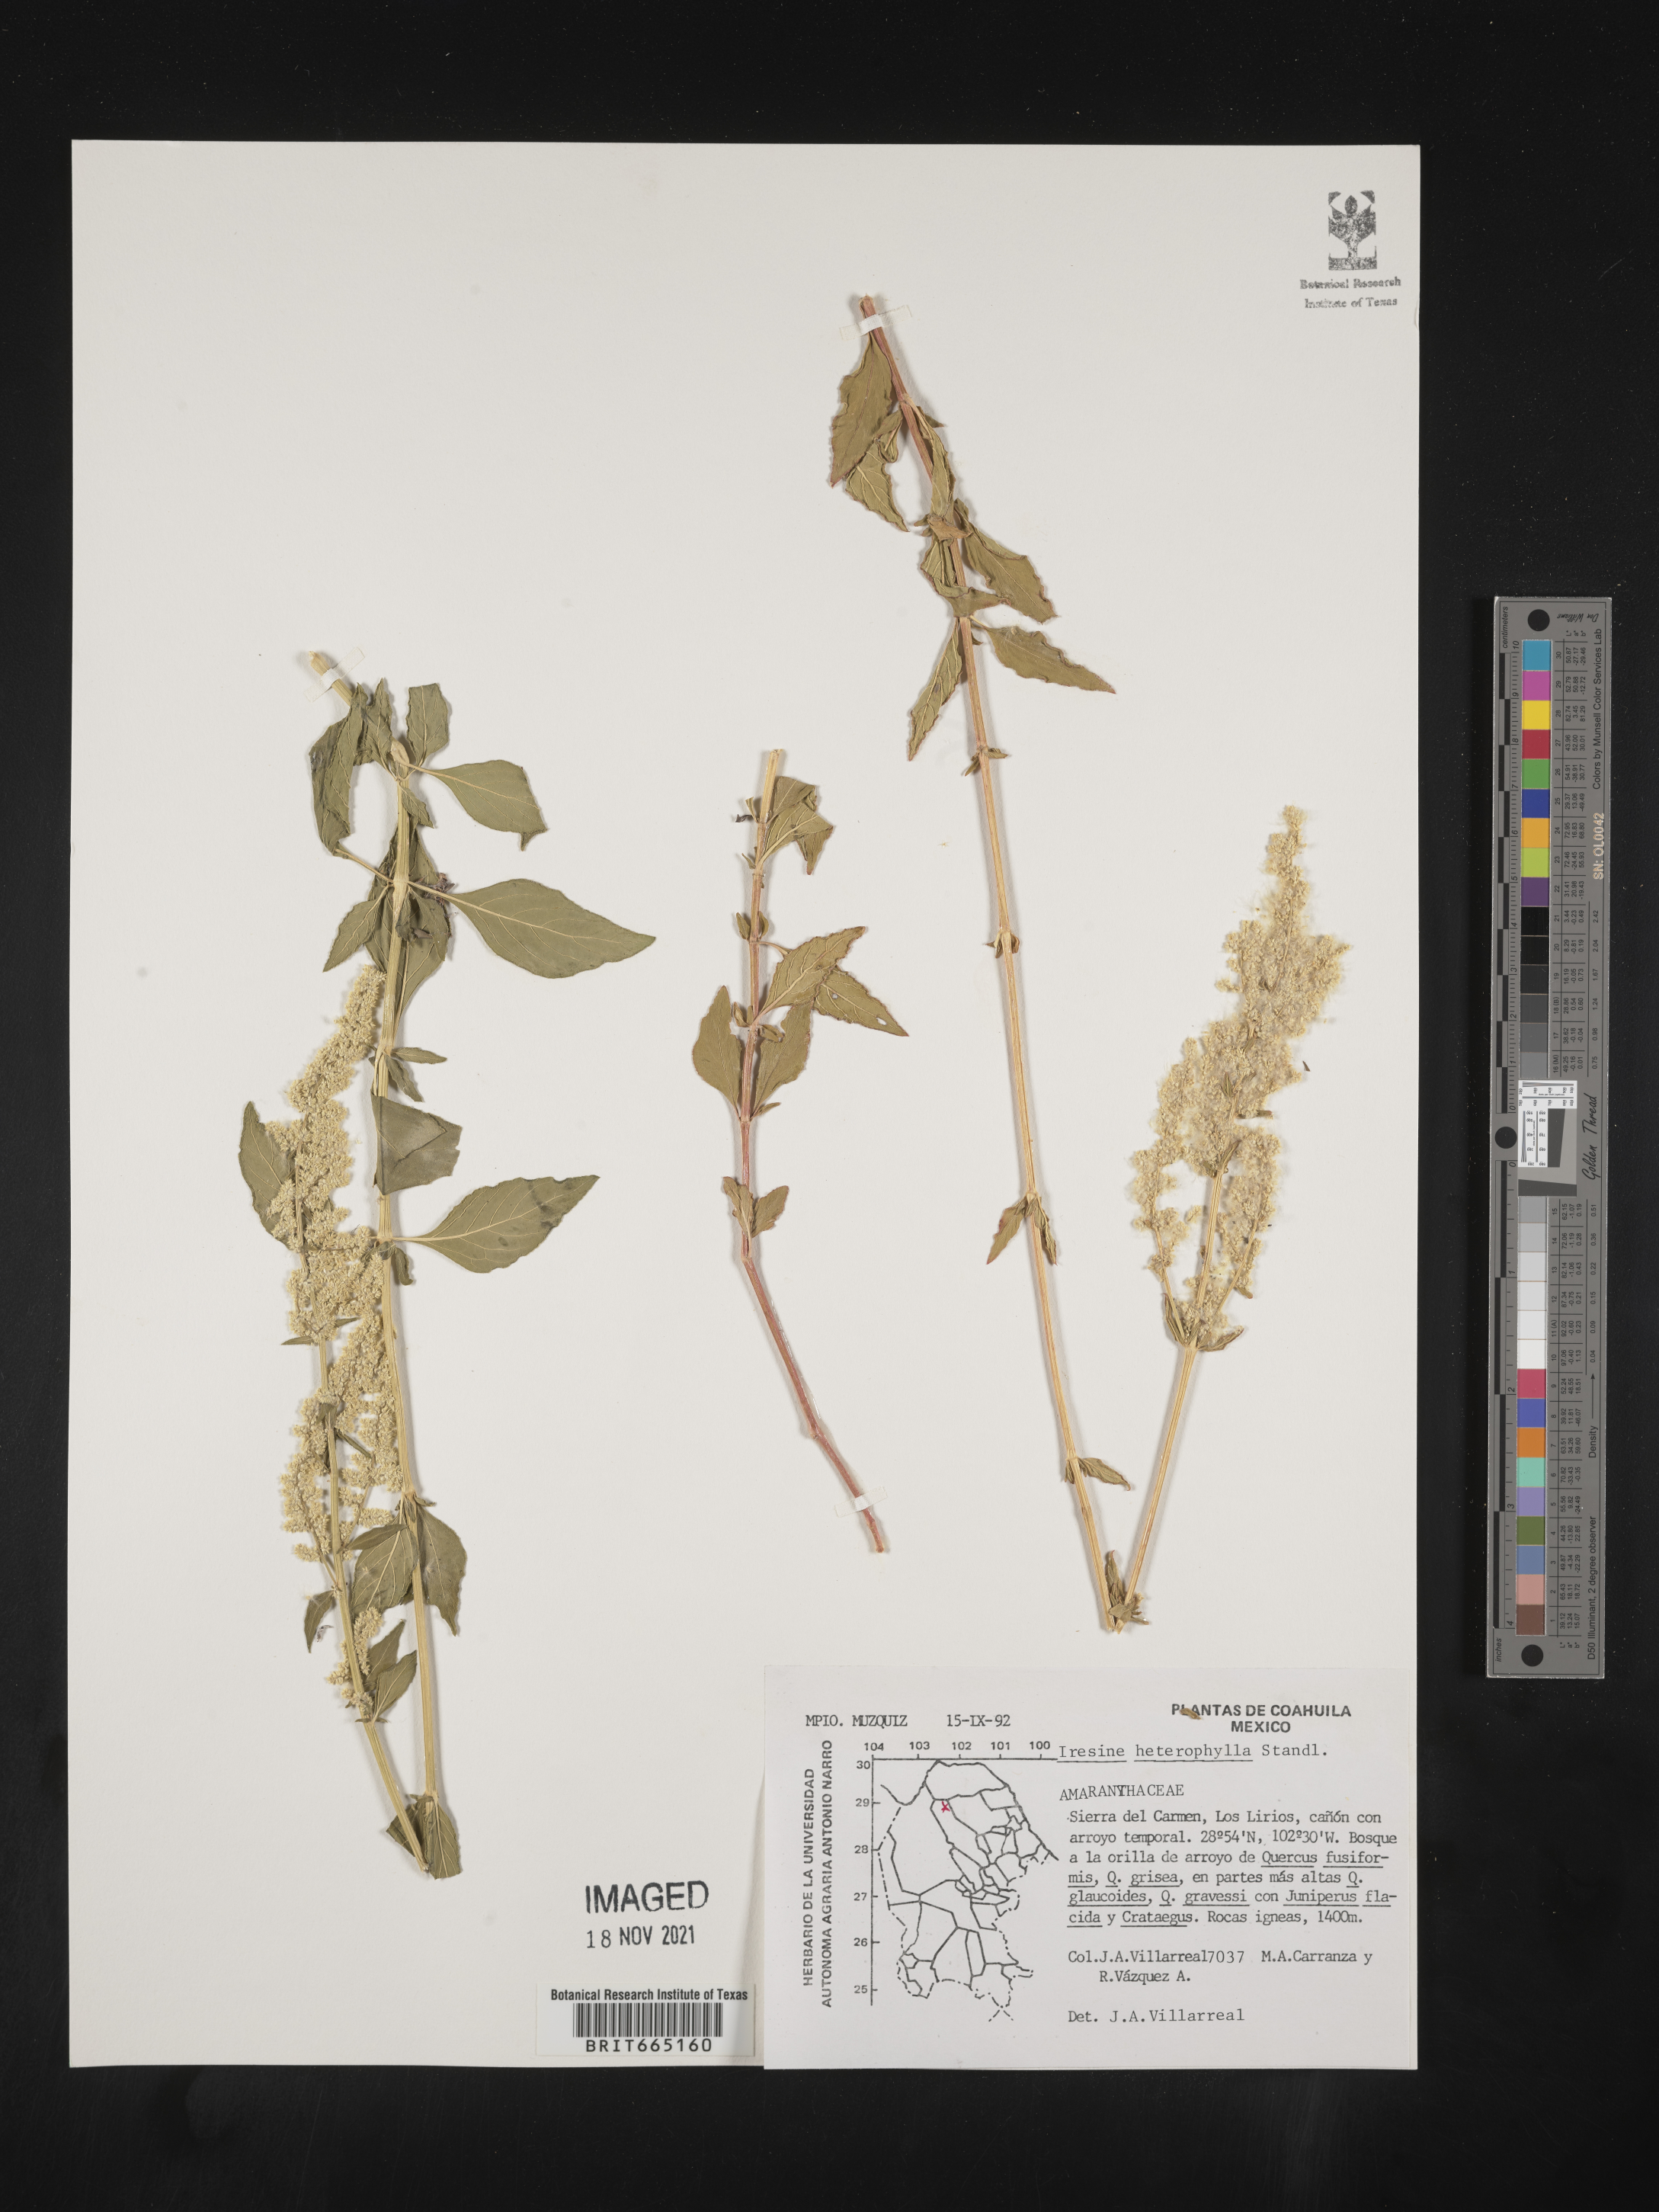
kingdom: Plantae
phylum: Tracheophyta
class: Magnoliopsida
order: Caryophyllales
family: Amaranthaceae
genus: Iresine
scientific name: Iresine
